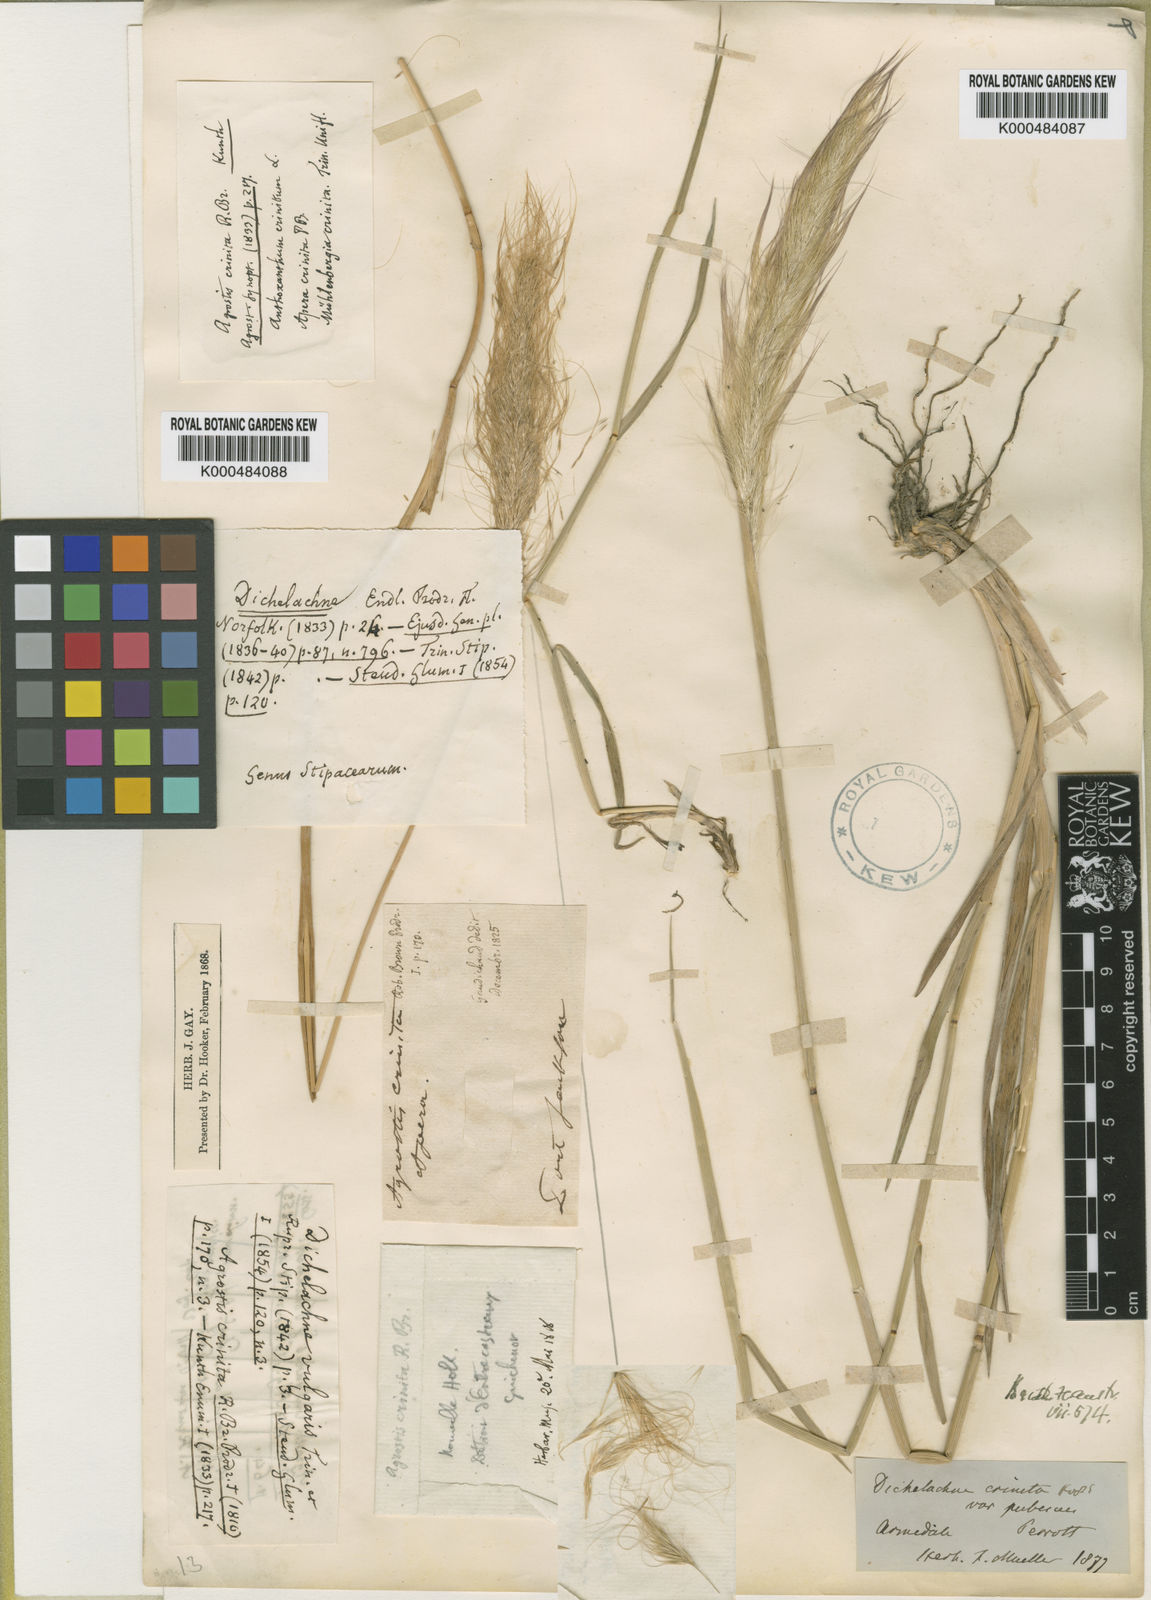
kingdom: Plantae
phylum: Tracheophyta
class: Liliopsida
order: Poales
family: Poaceae
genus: Dichelachne
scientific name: Dichelachne crinita
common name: Clovenfoot plumegrass
